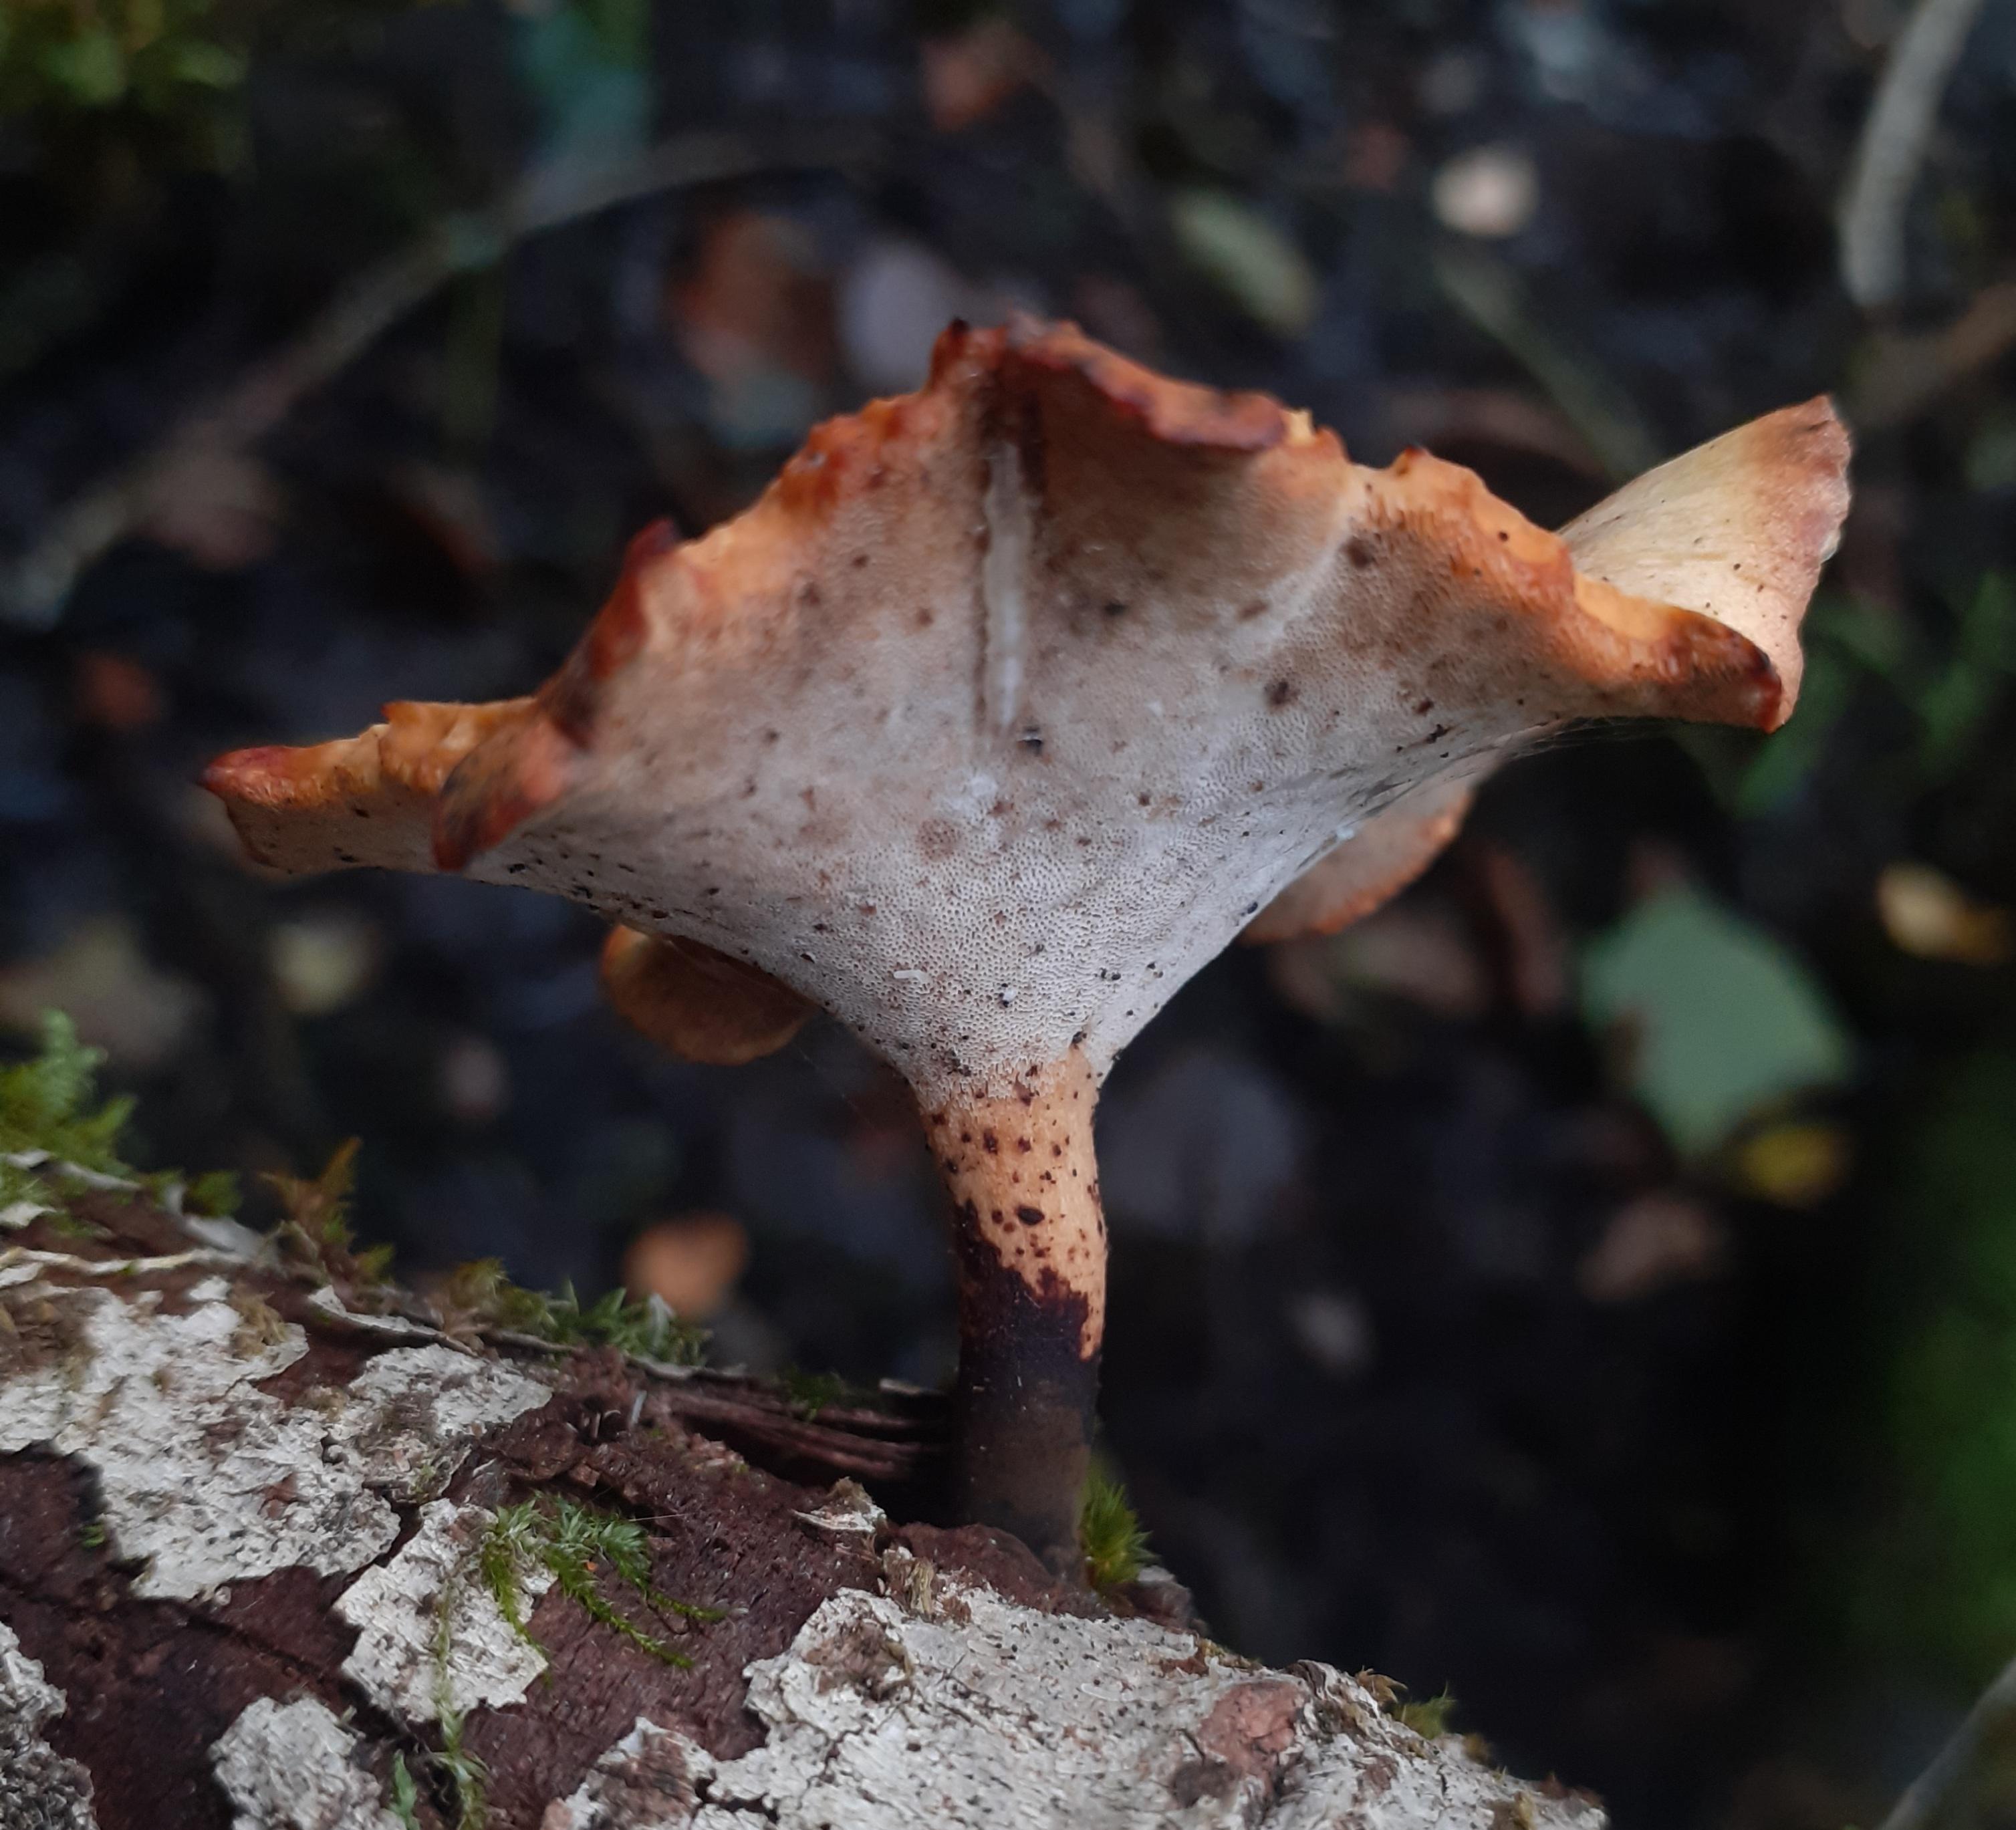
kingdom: Fungi
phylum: Basidiomycota
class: Agaricomycetes
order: Polyporales
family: Polyporaceae
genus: Cerioporus
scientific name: Cerioporus varius
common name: foranderlig stilkporesvamp
